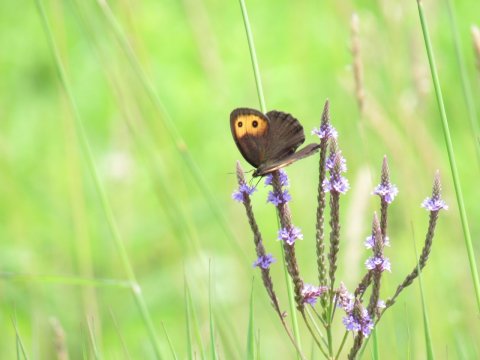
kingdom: Animalia
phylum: Arthropoda
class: Insecta
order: Lepidoptera
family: Nymphalidae
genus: Cercyonis
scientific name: Cercyonis pegala
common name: Common Wood-Nymph
